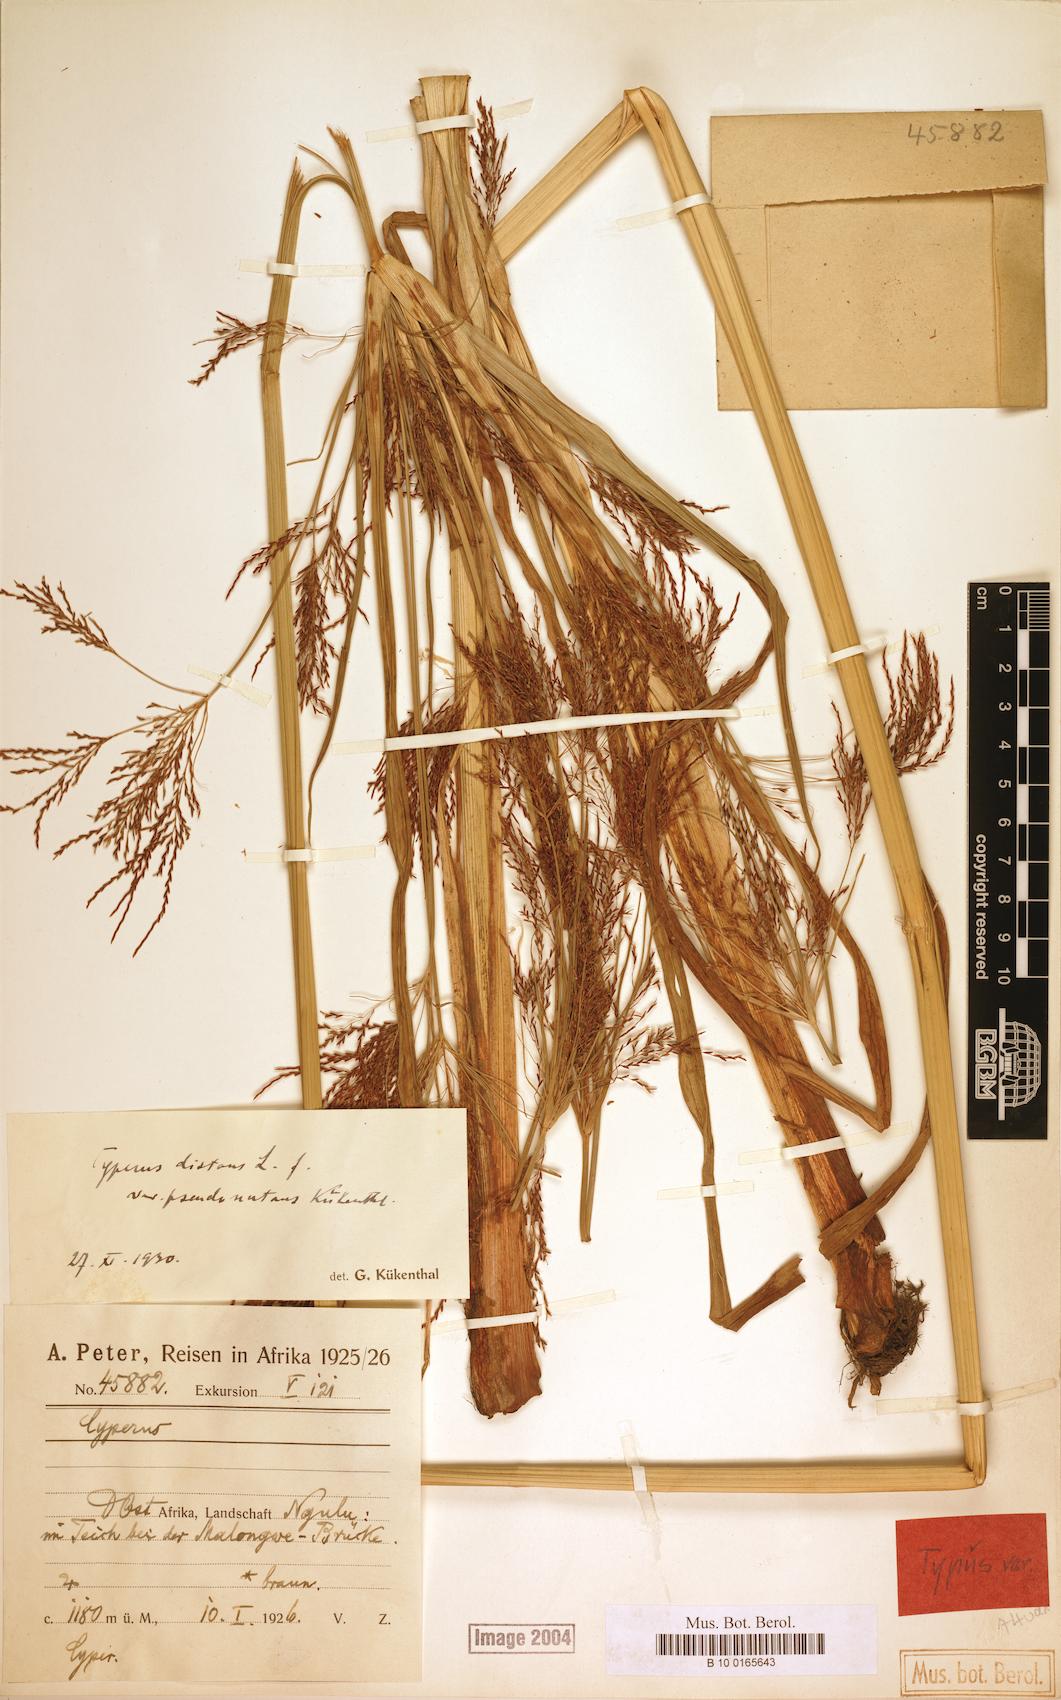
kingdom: Plantae
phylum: Tracheophyta
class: Liliopsida
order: Poales
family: Cyperaceae
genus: Cyperus
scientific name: Cyperus distans
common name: Slender cyperus
